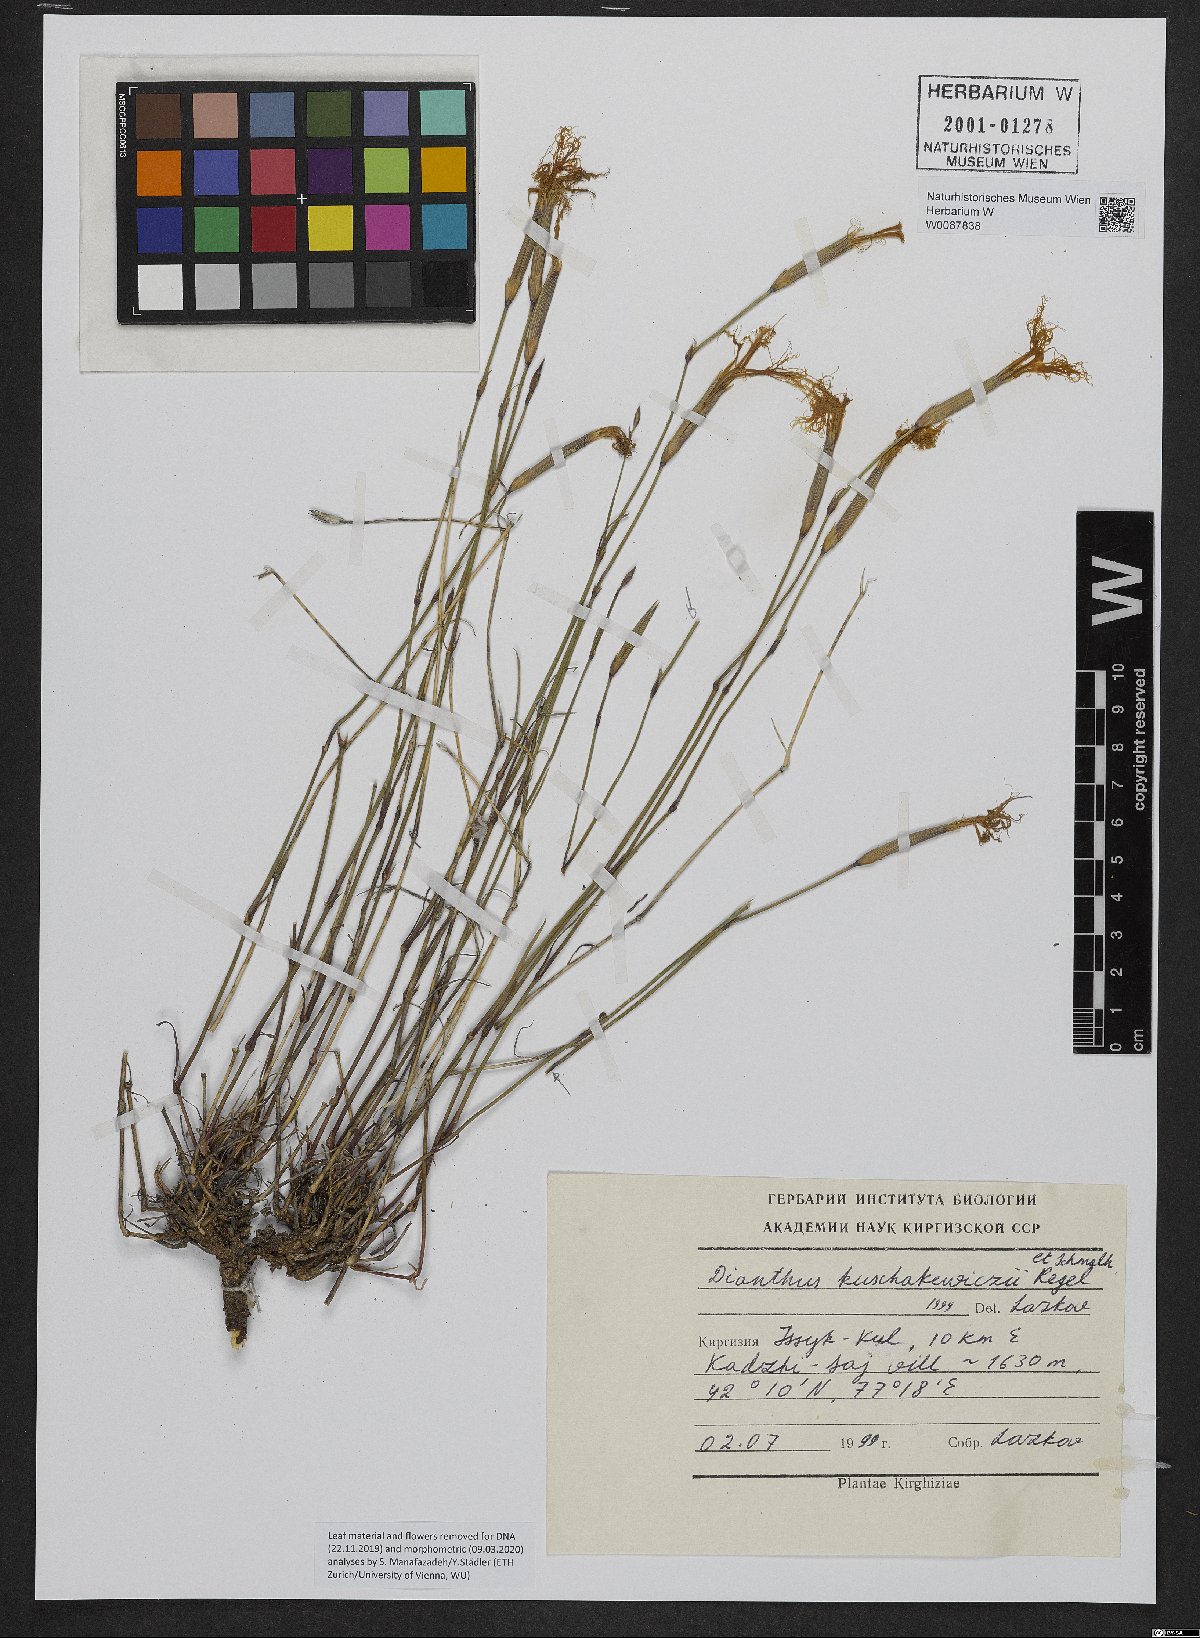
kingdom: Plantae
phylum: Tracheophyta
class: Magnoliopsida
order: Caryophyllales
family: Caryophyllaceae
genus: Dianthus
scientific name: Dianthus kuschakewiczii
